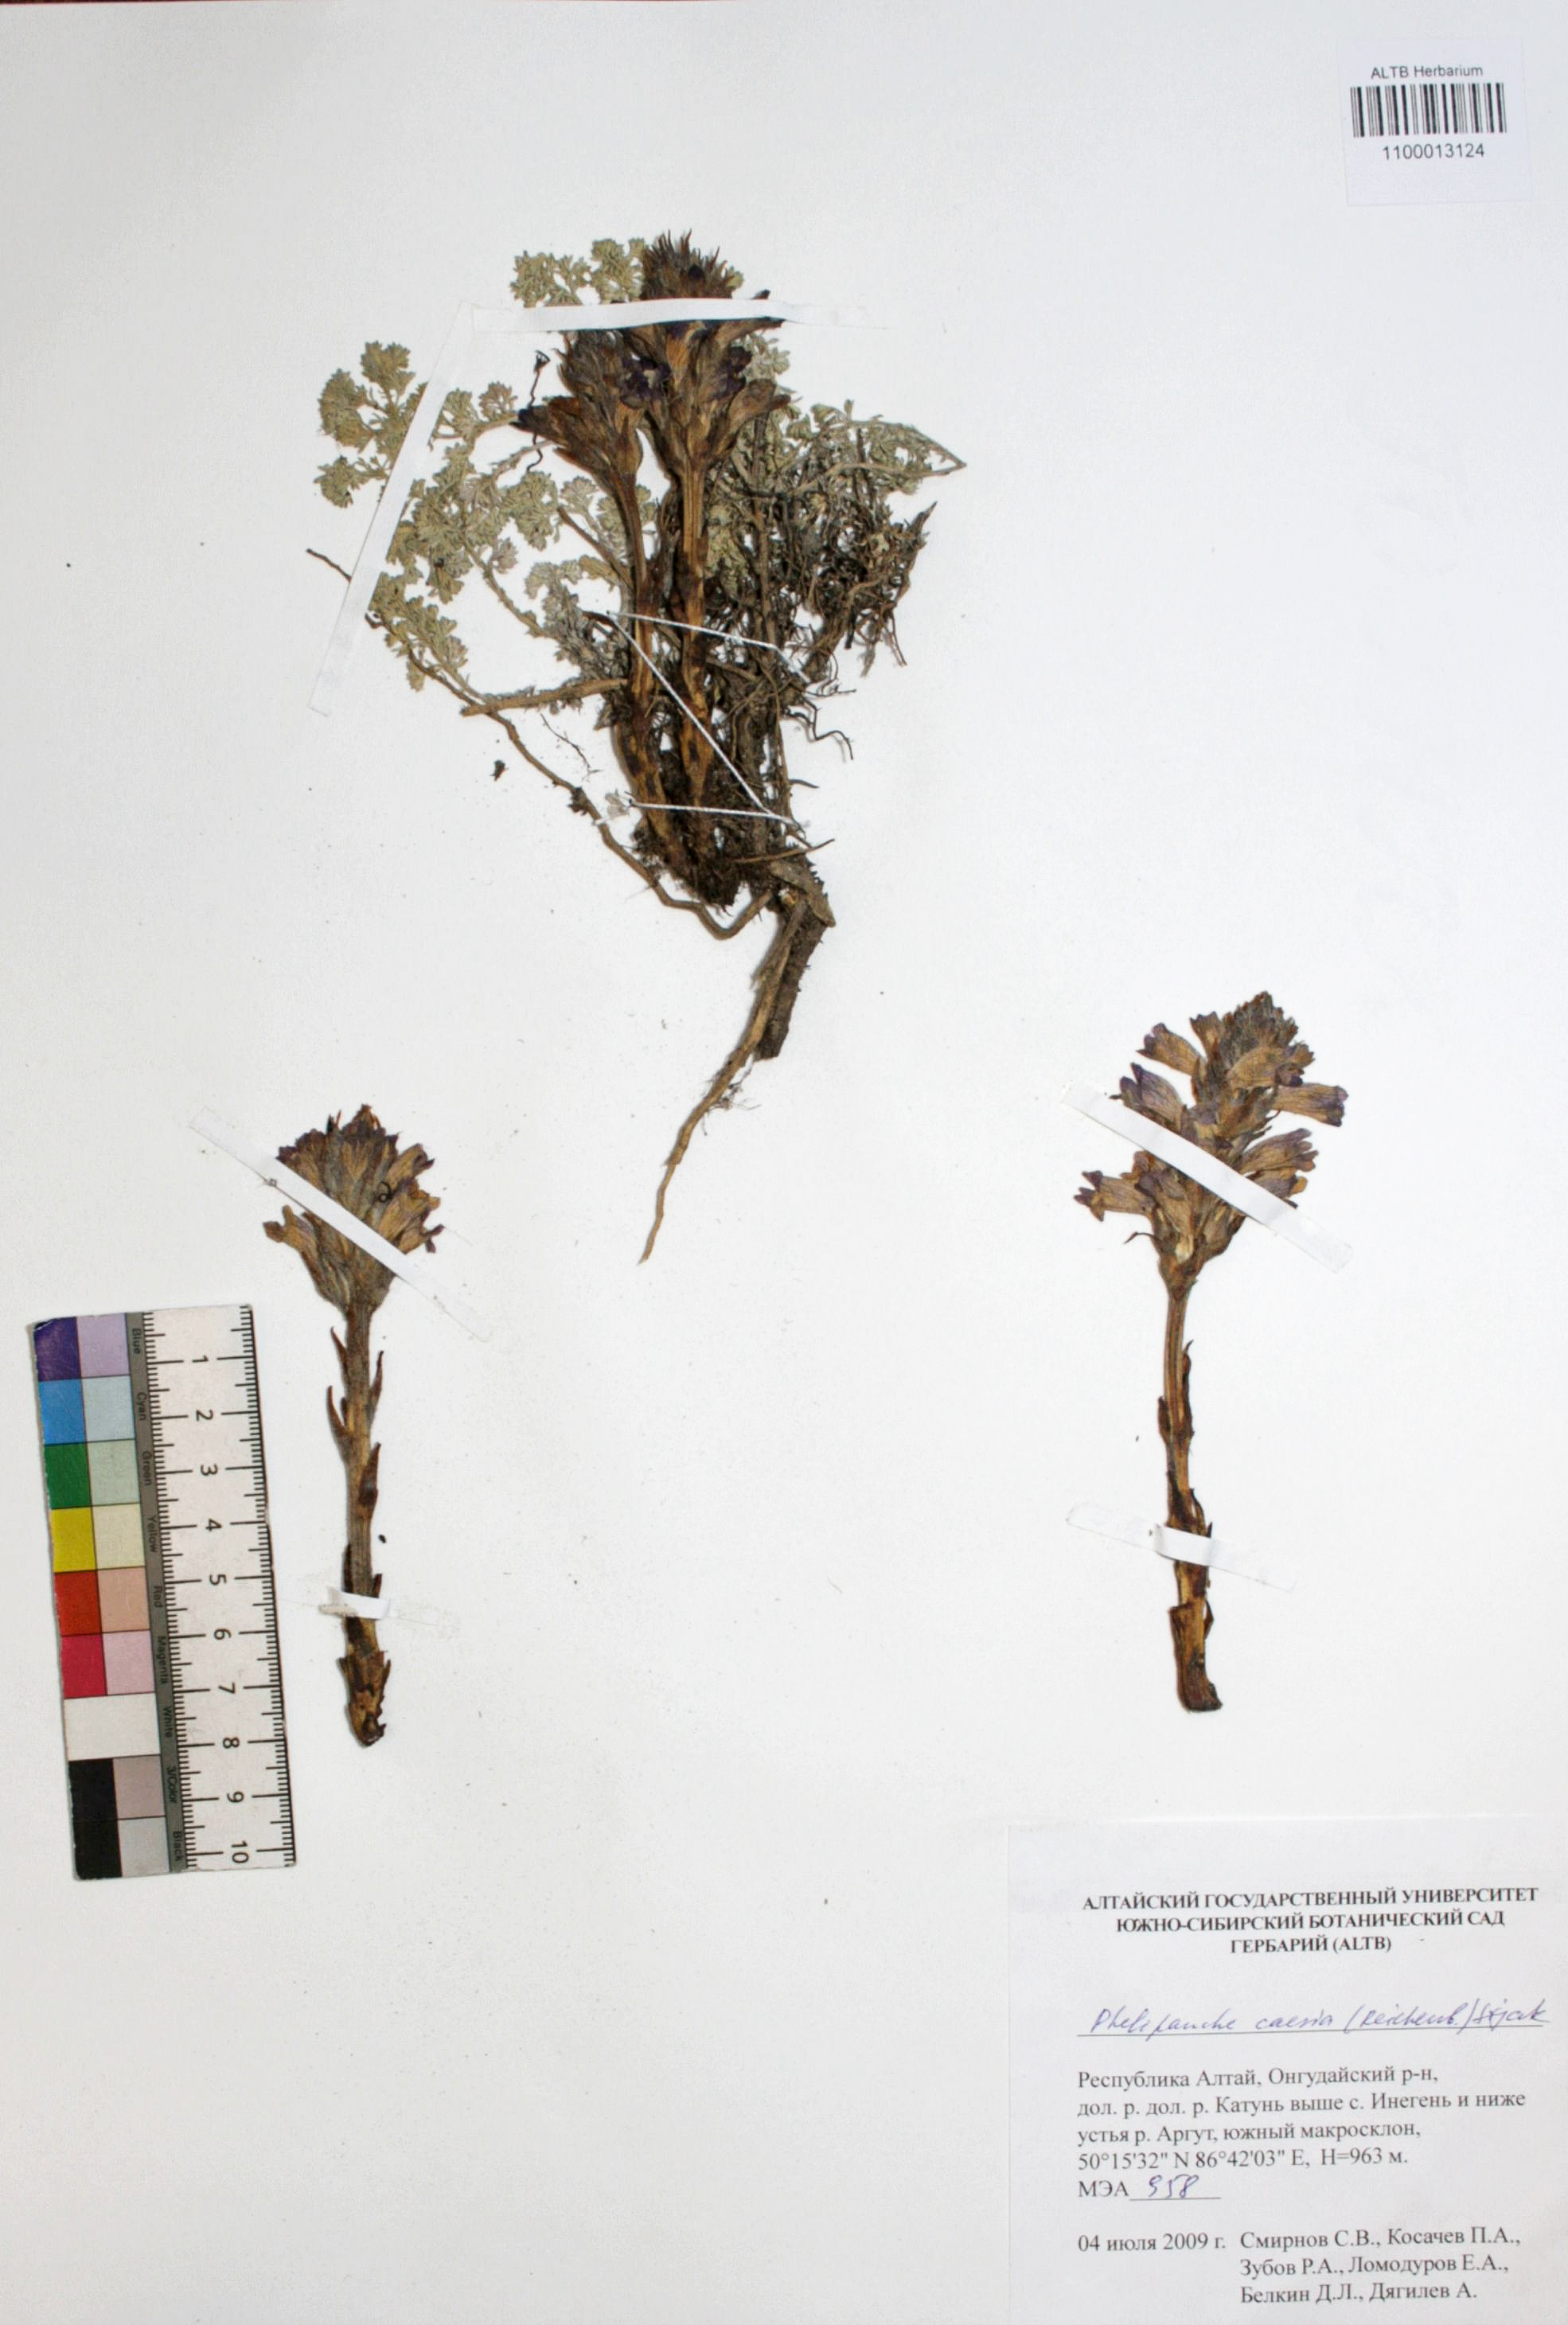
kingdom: Plantae
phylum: Tracheophyta
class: Magnoliopsida
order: Lamiales
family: Orobanchaceae
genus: Phelipanche
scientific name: Phelipanche caesia
